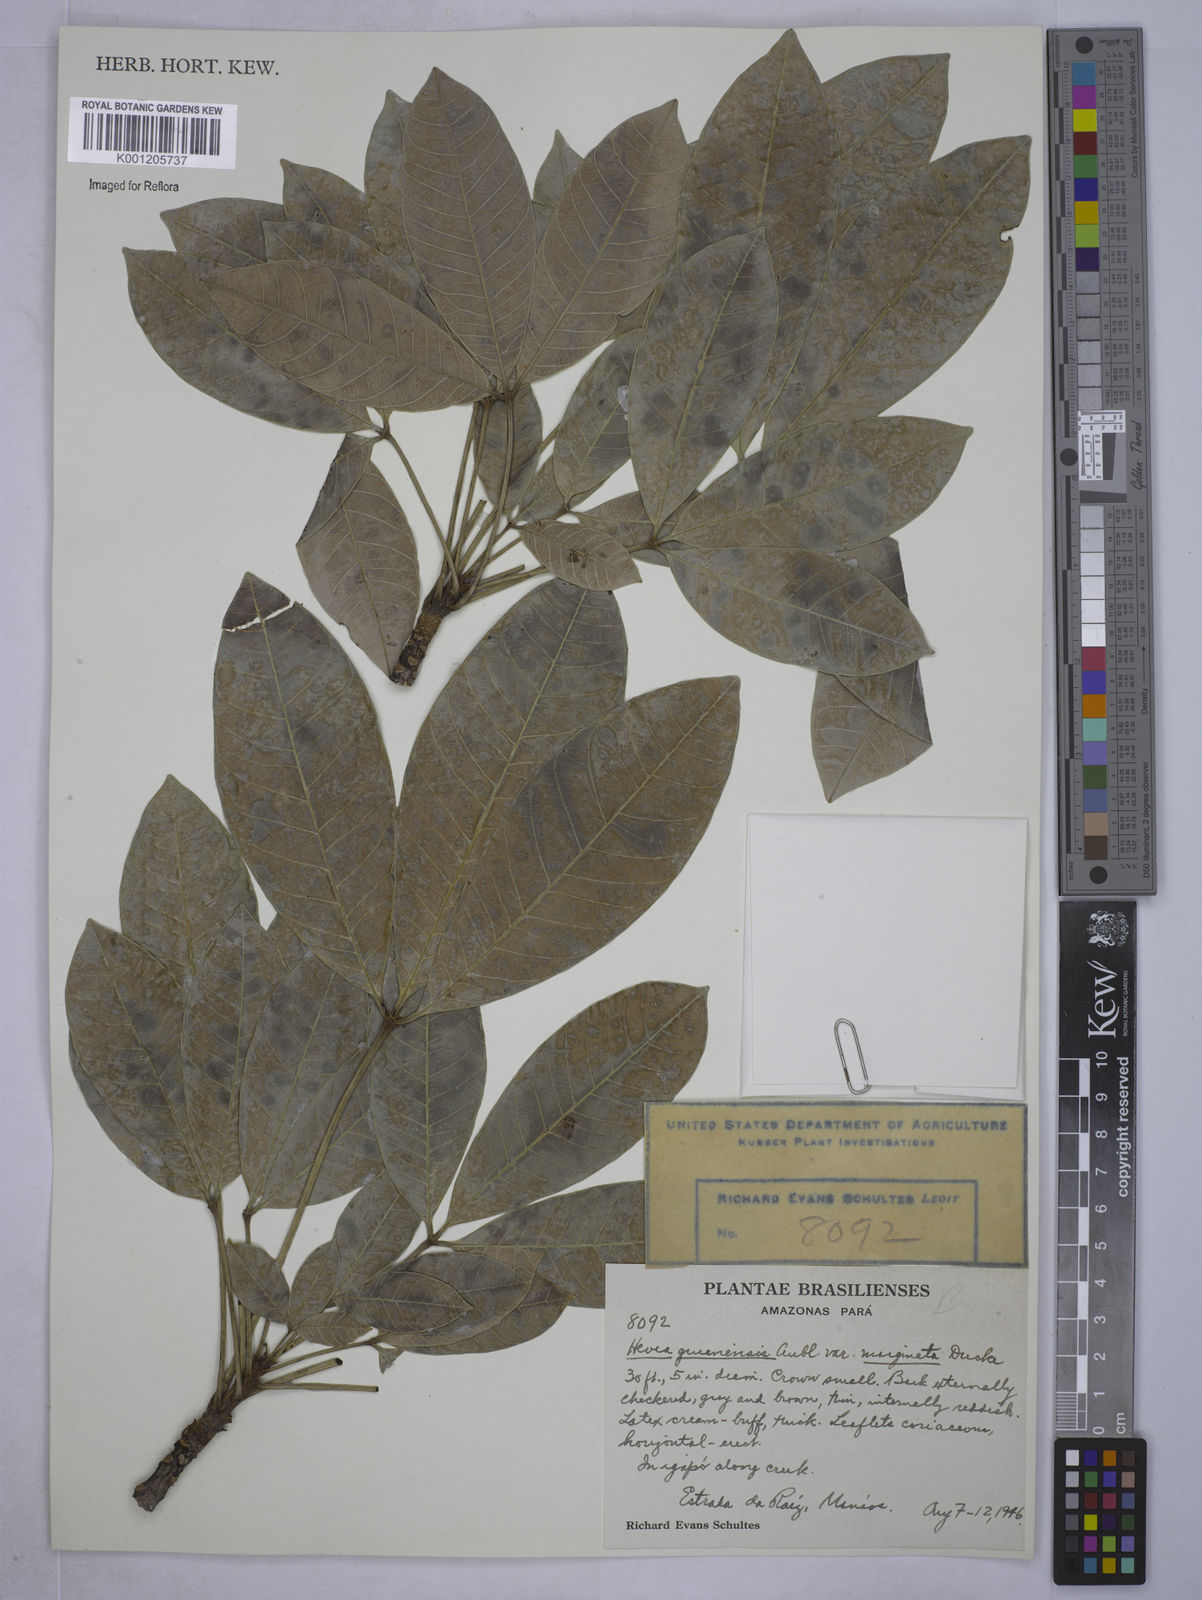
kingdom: Plantae
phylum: Tracheophyta
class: Magnoliopsida
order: Malpighiales
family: Euphorbiaceae
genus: Hevea
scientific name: Hevea guianensis
